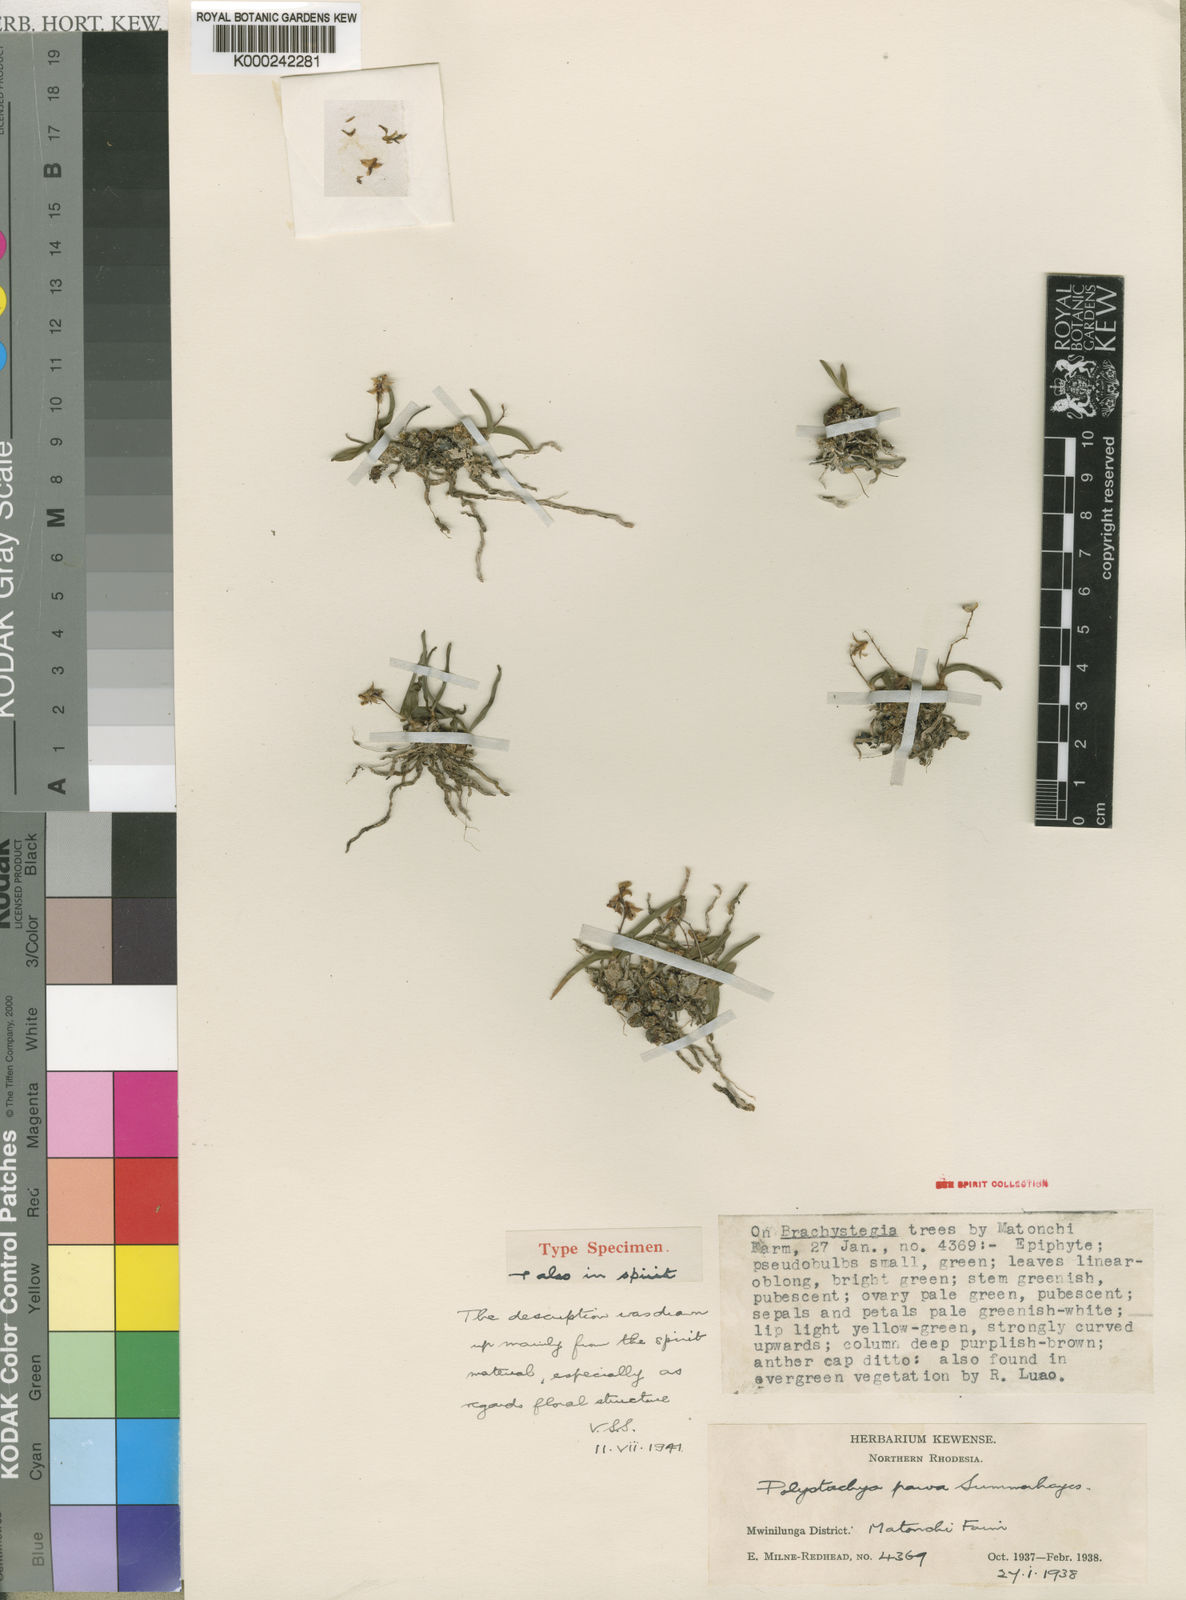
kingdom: Plantae
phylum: Tracheophyta
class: Liliopsida
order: Asparagales
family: Orchidaceae
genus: Polystachya
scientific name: Polystachya parva
